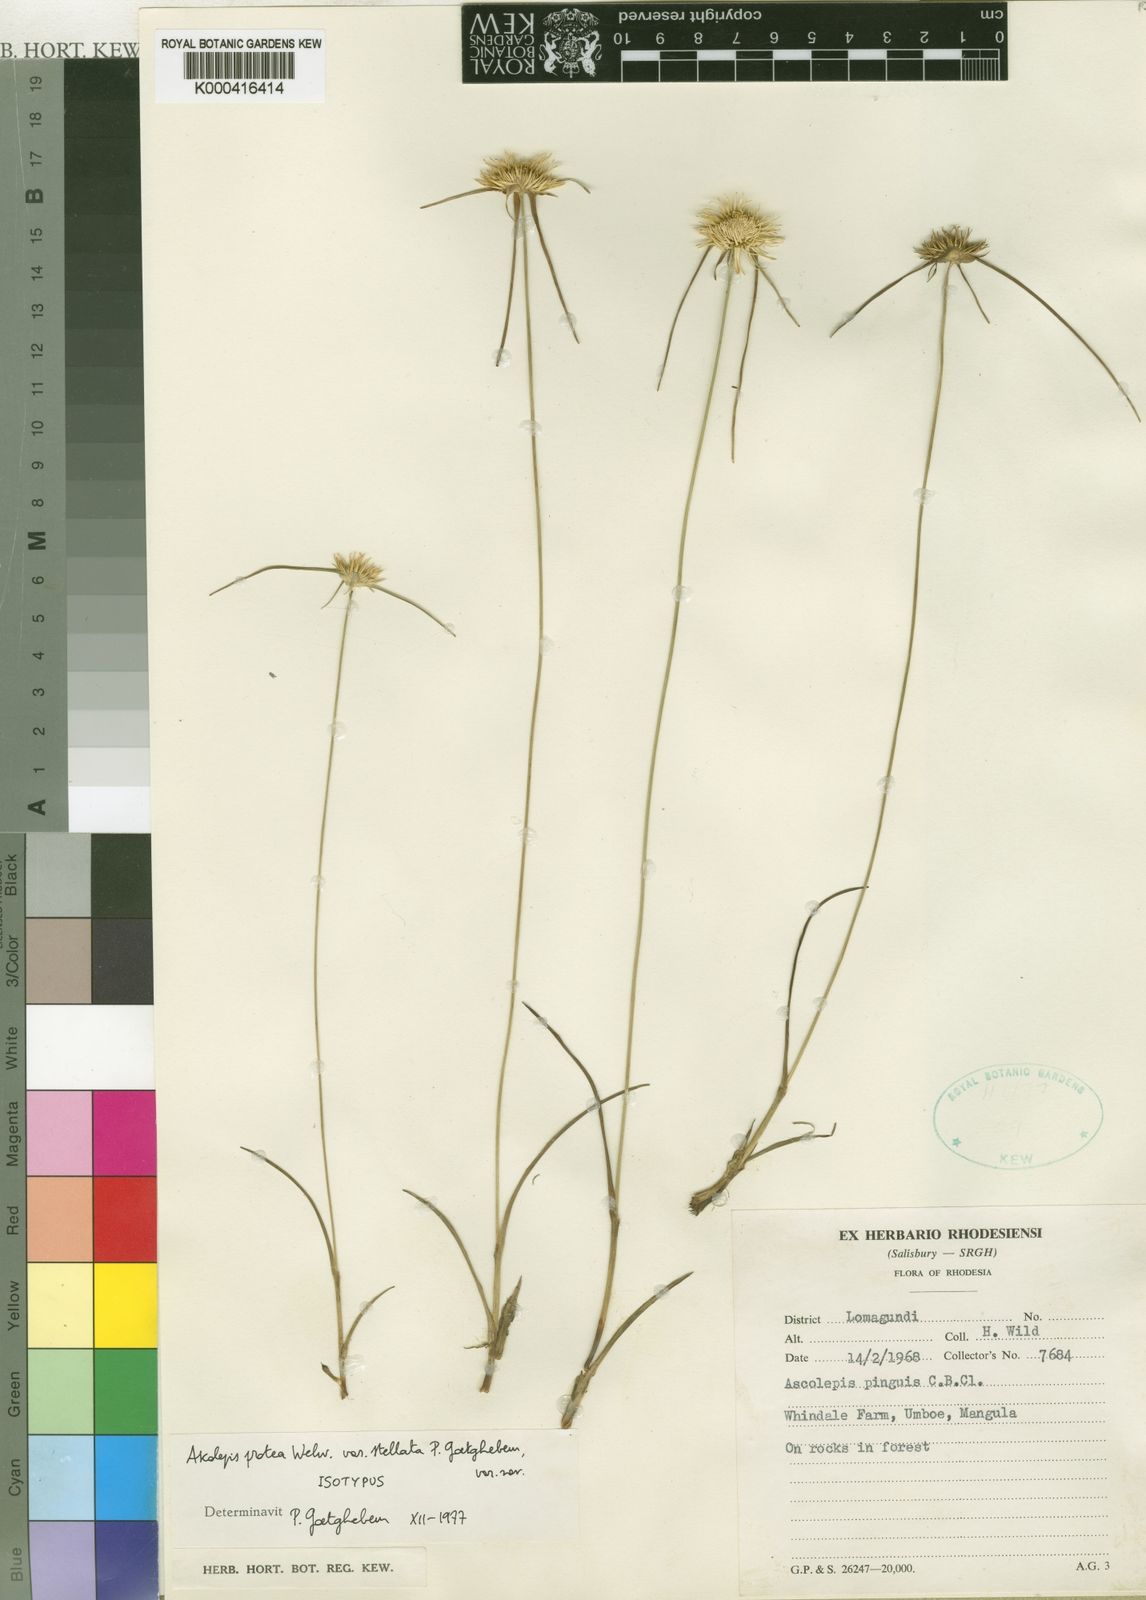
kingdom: Plantae
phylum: Tracheophyta
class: Liliopsida
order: Poales
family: Cyperaceae
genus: Cyperus
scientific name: Cyperus proteus
